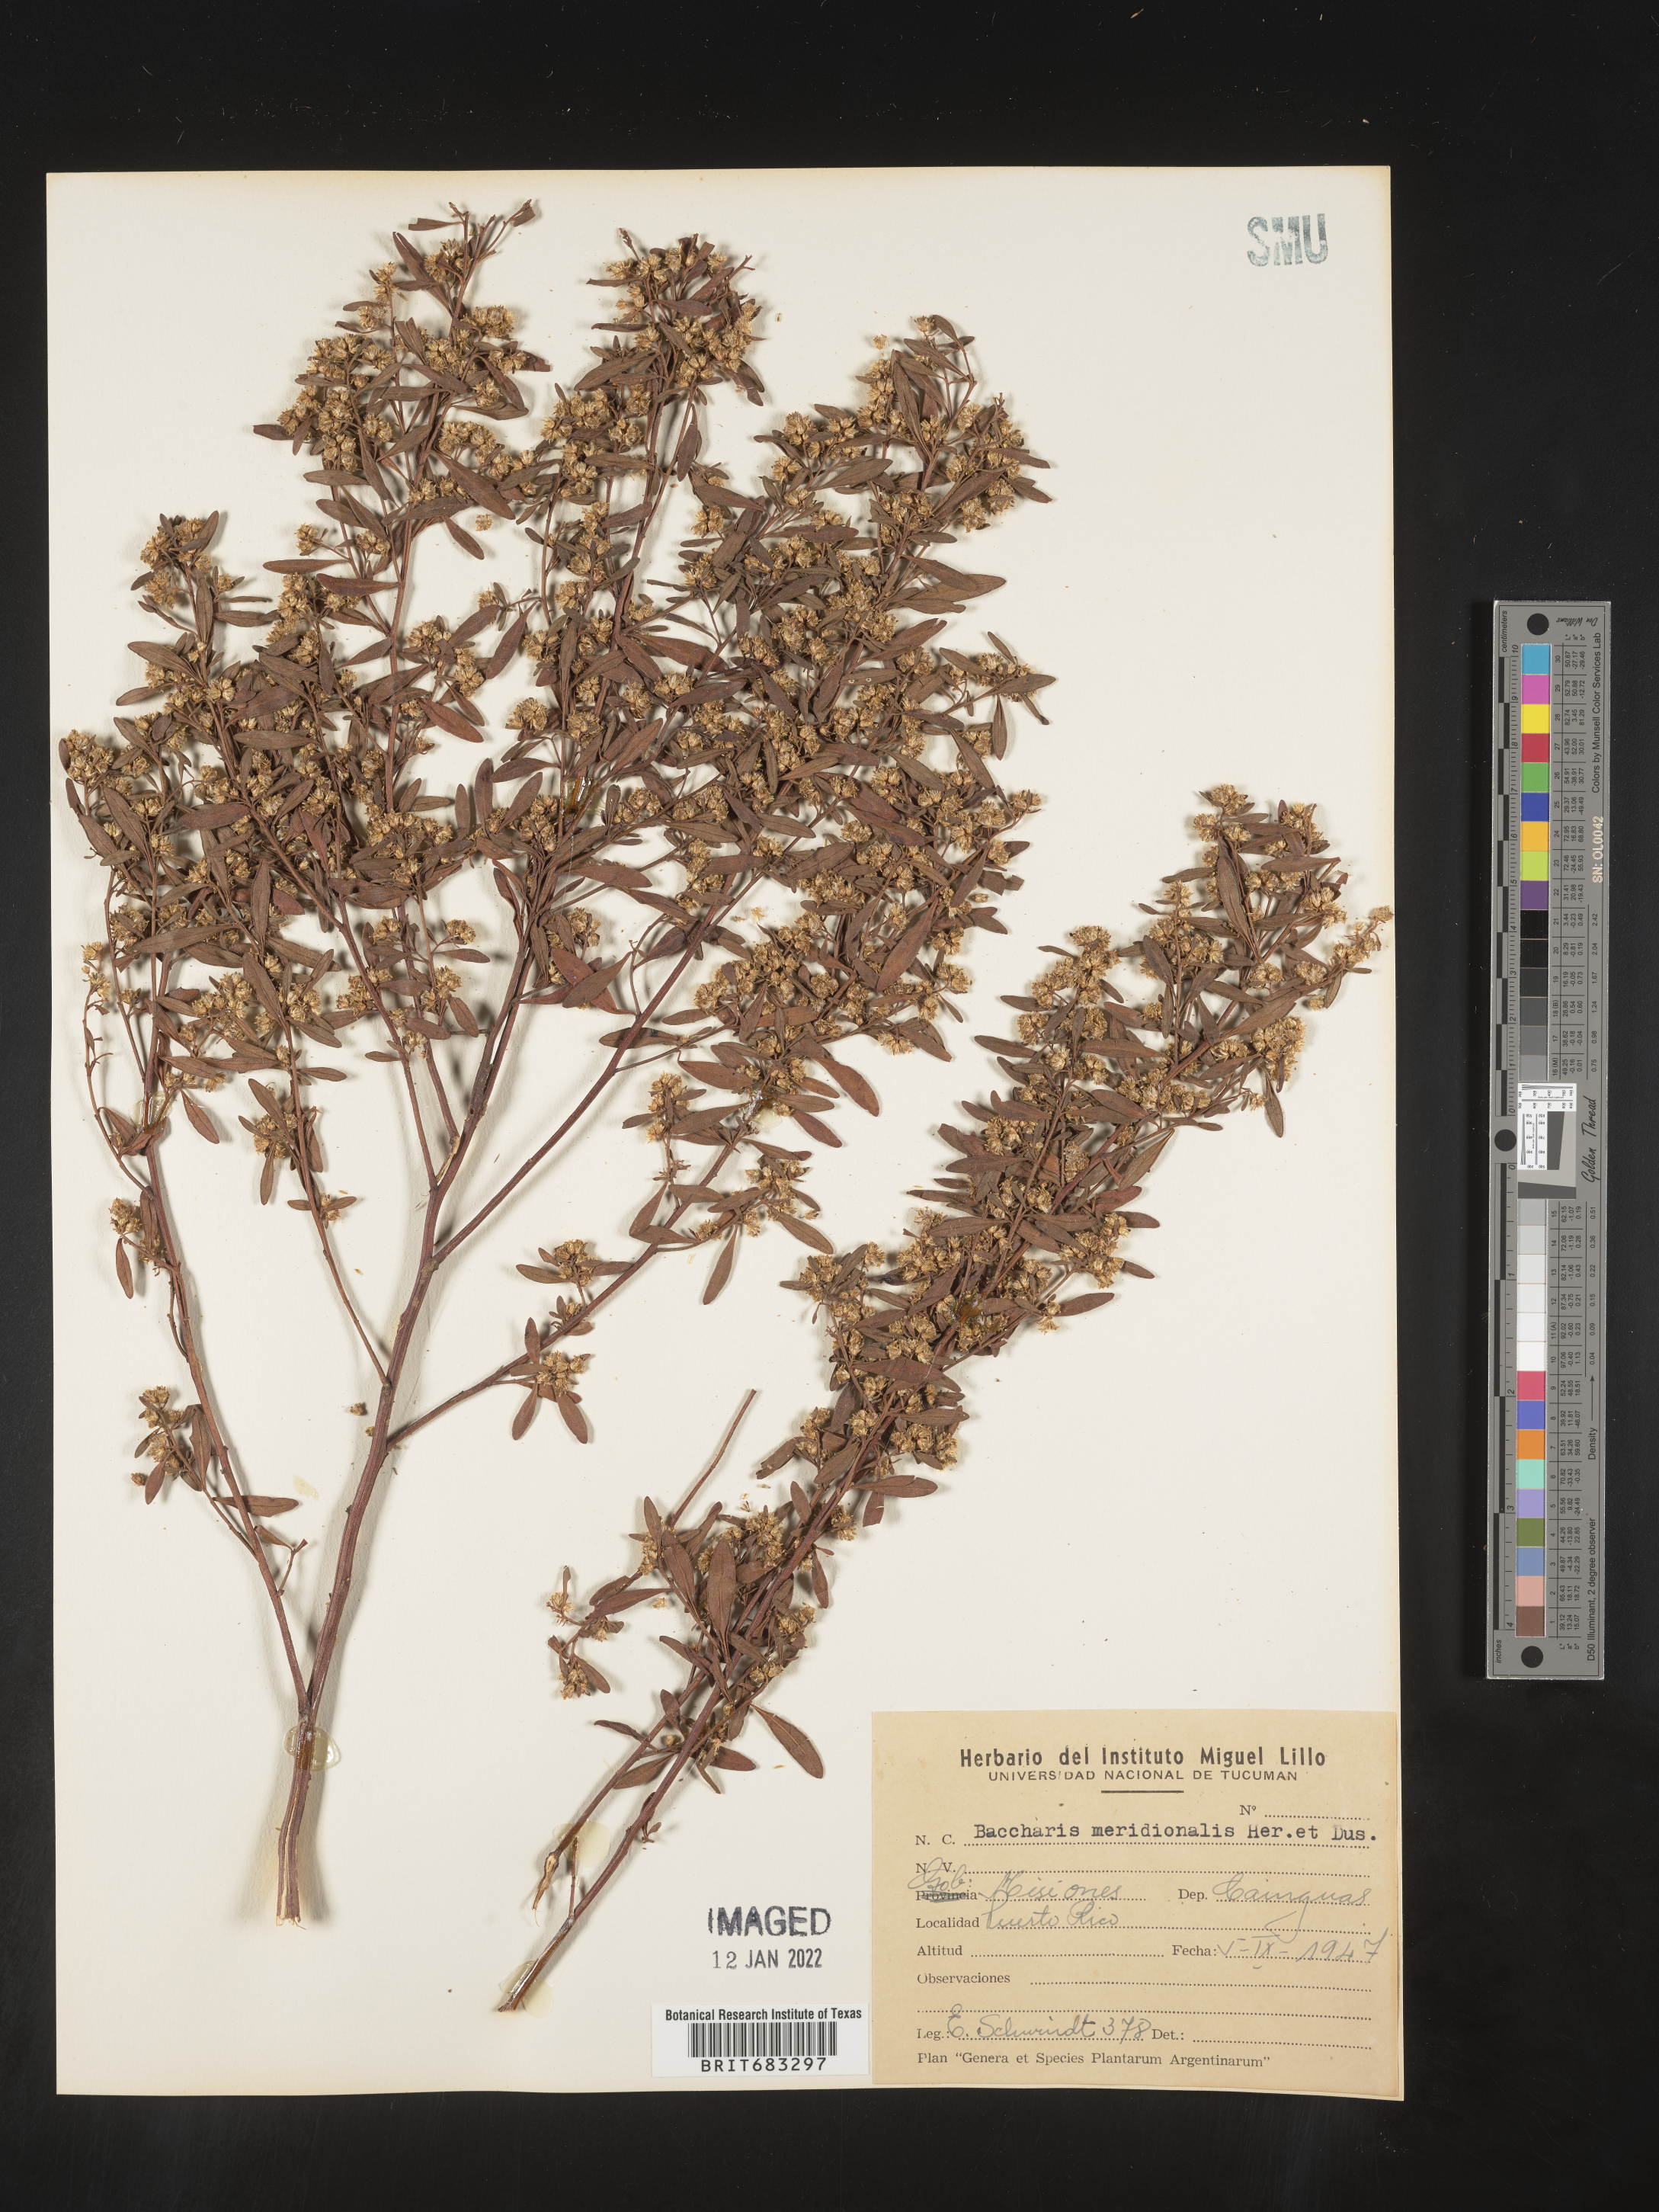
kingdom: Plantae
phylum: Tracheophyta
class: Magnoliopsida
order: Asterales
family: Asteraceae
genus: Baccharis
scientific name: Baccharis
